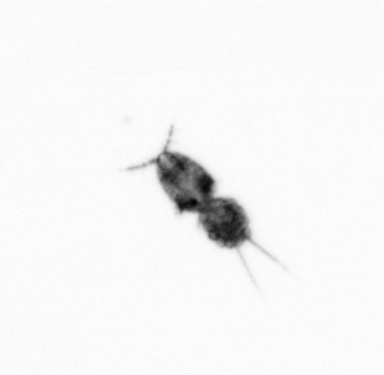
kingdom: Animalia
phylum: Arthropoda
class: Copepoda
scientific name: Copepoda
